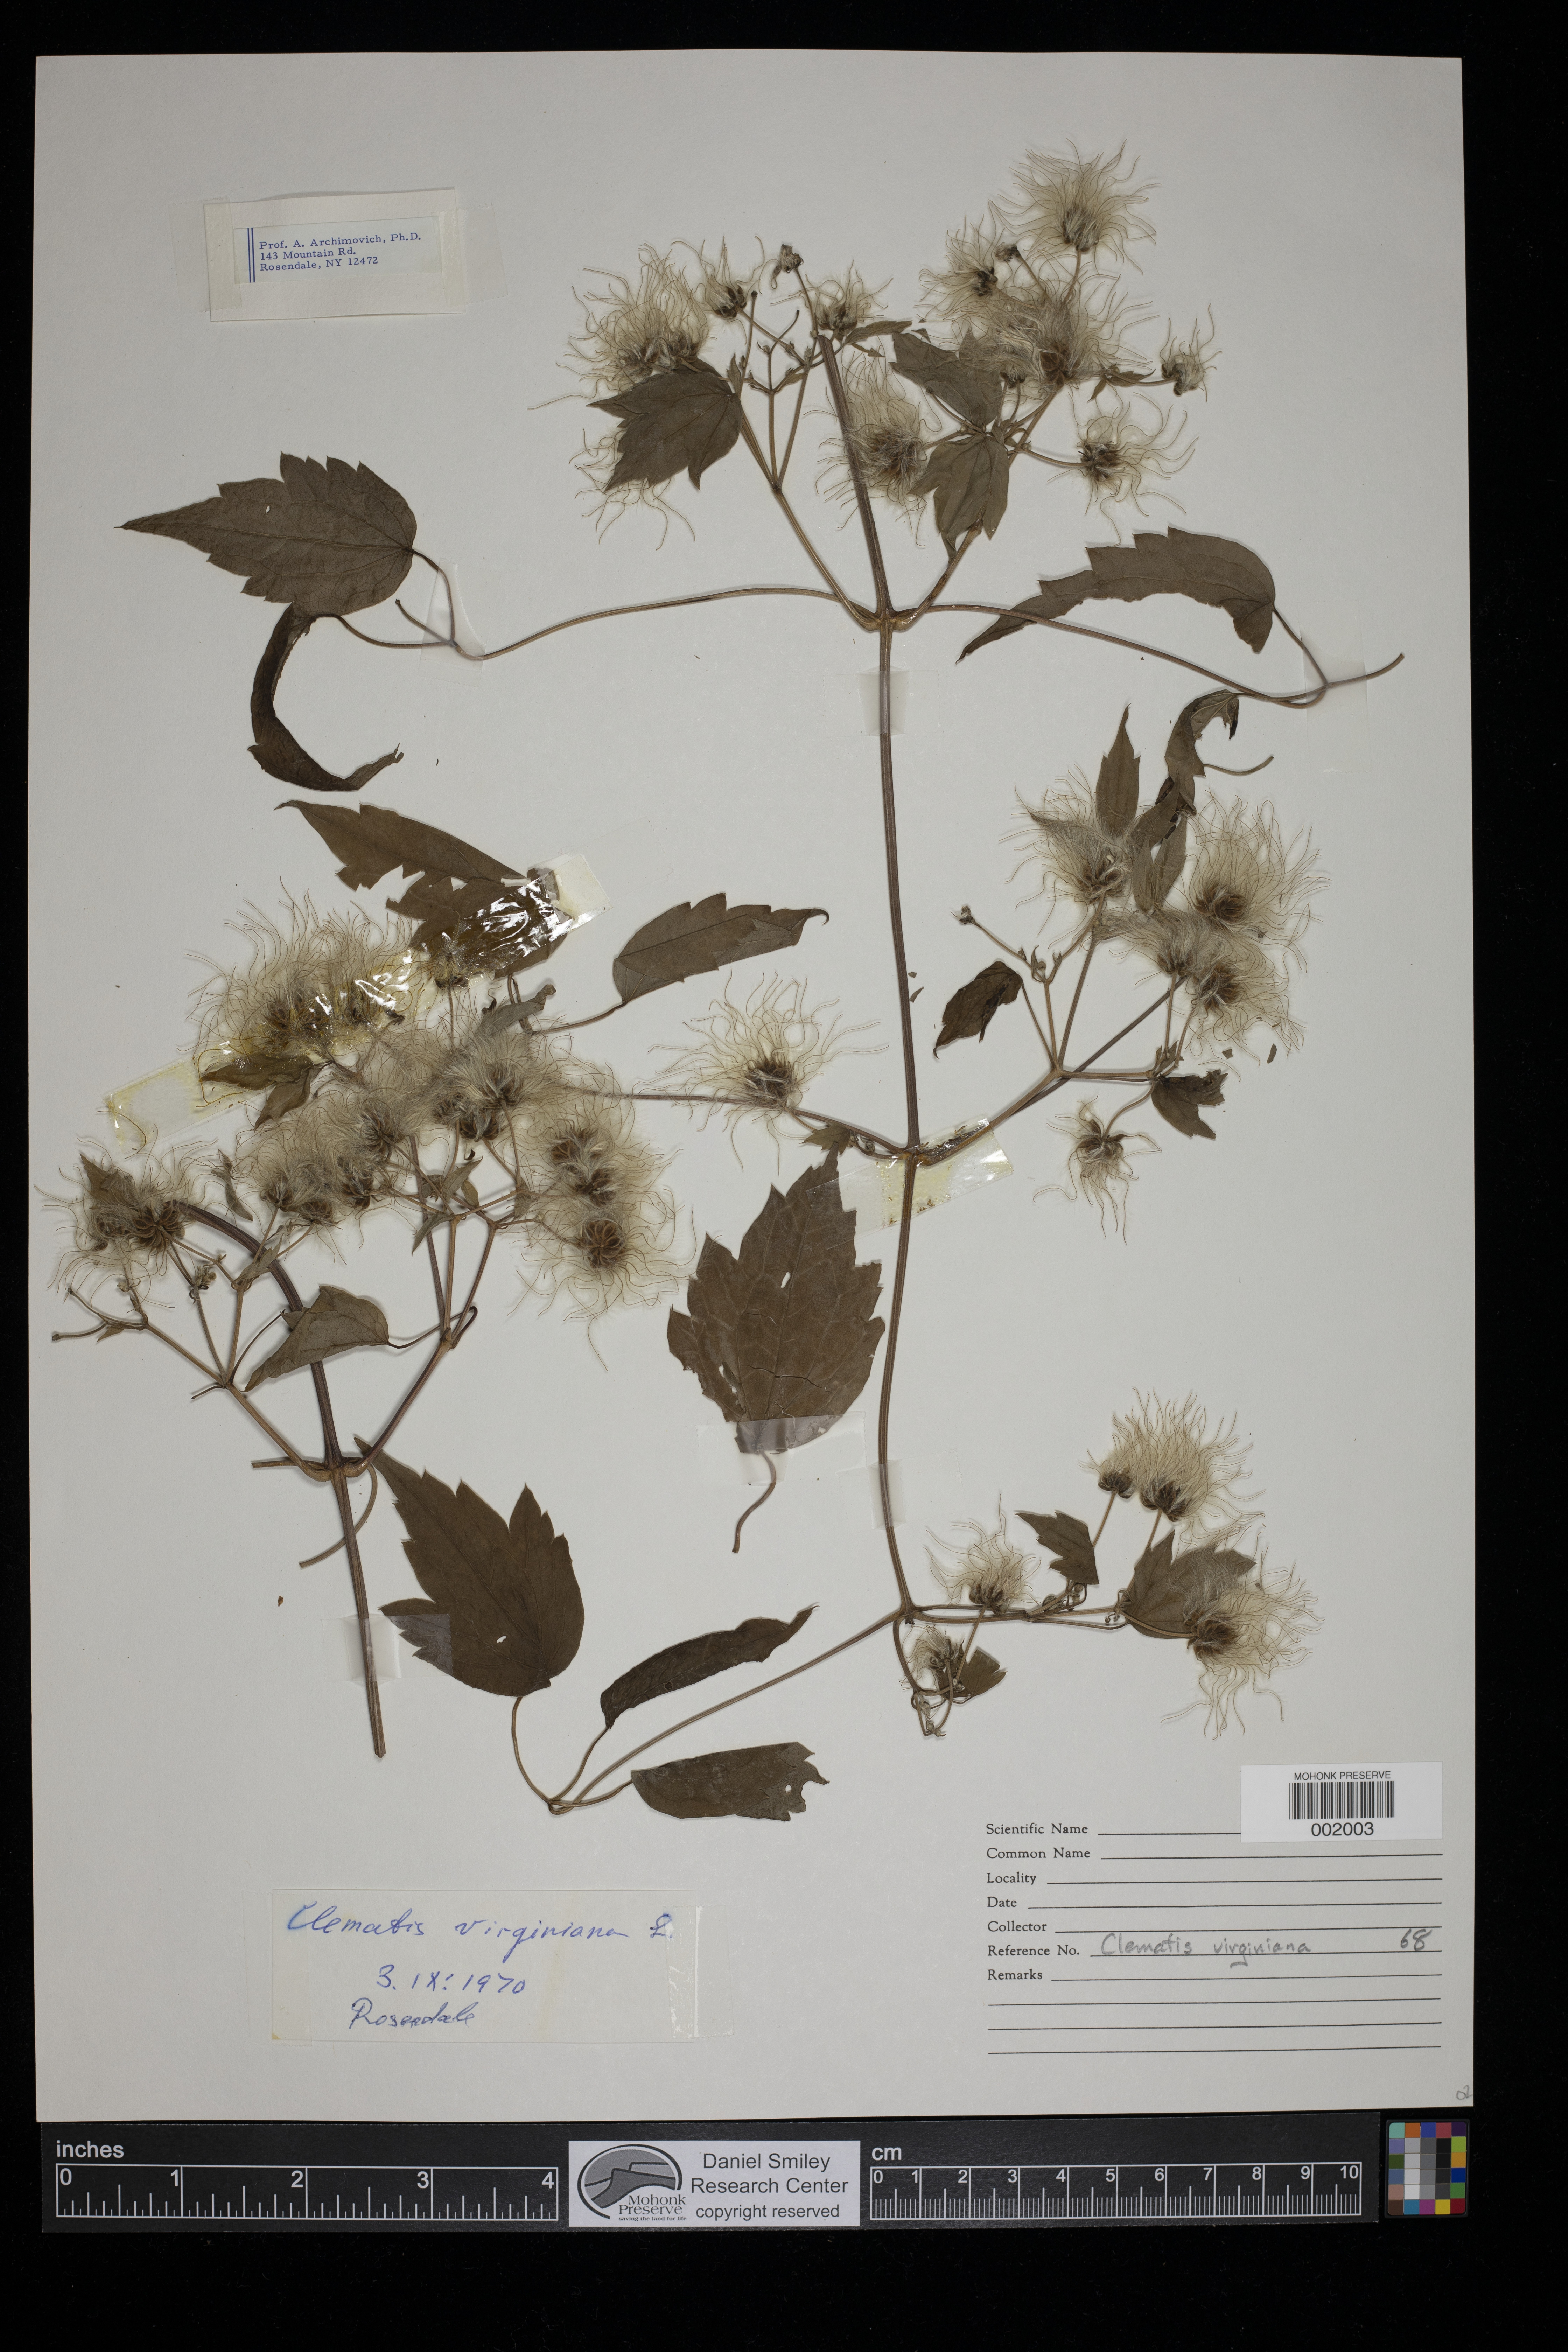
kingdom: Plantae
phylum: Tracheophyta
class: Magnoliopsida
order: Ranunculales
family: Ranunculaceae
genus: Clematis
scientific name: Clematis virginiana
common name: Virgin's-bower
